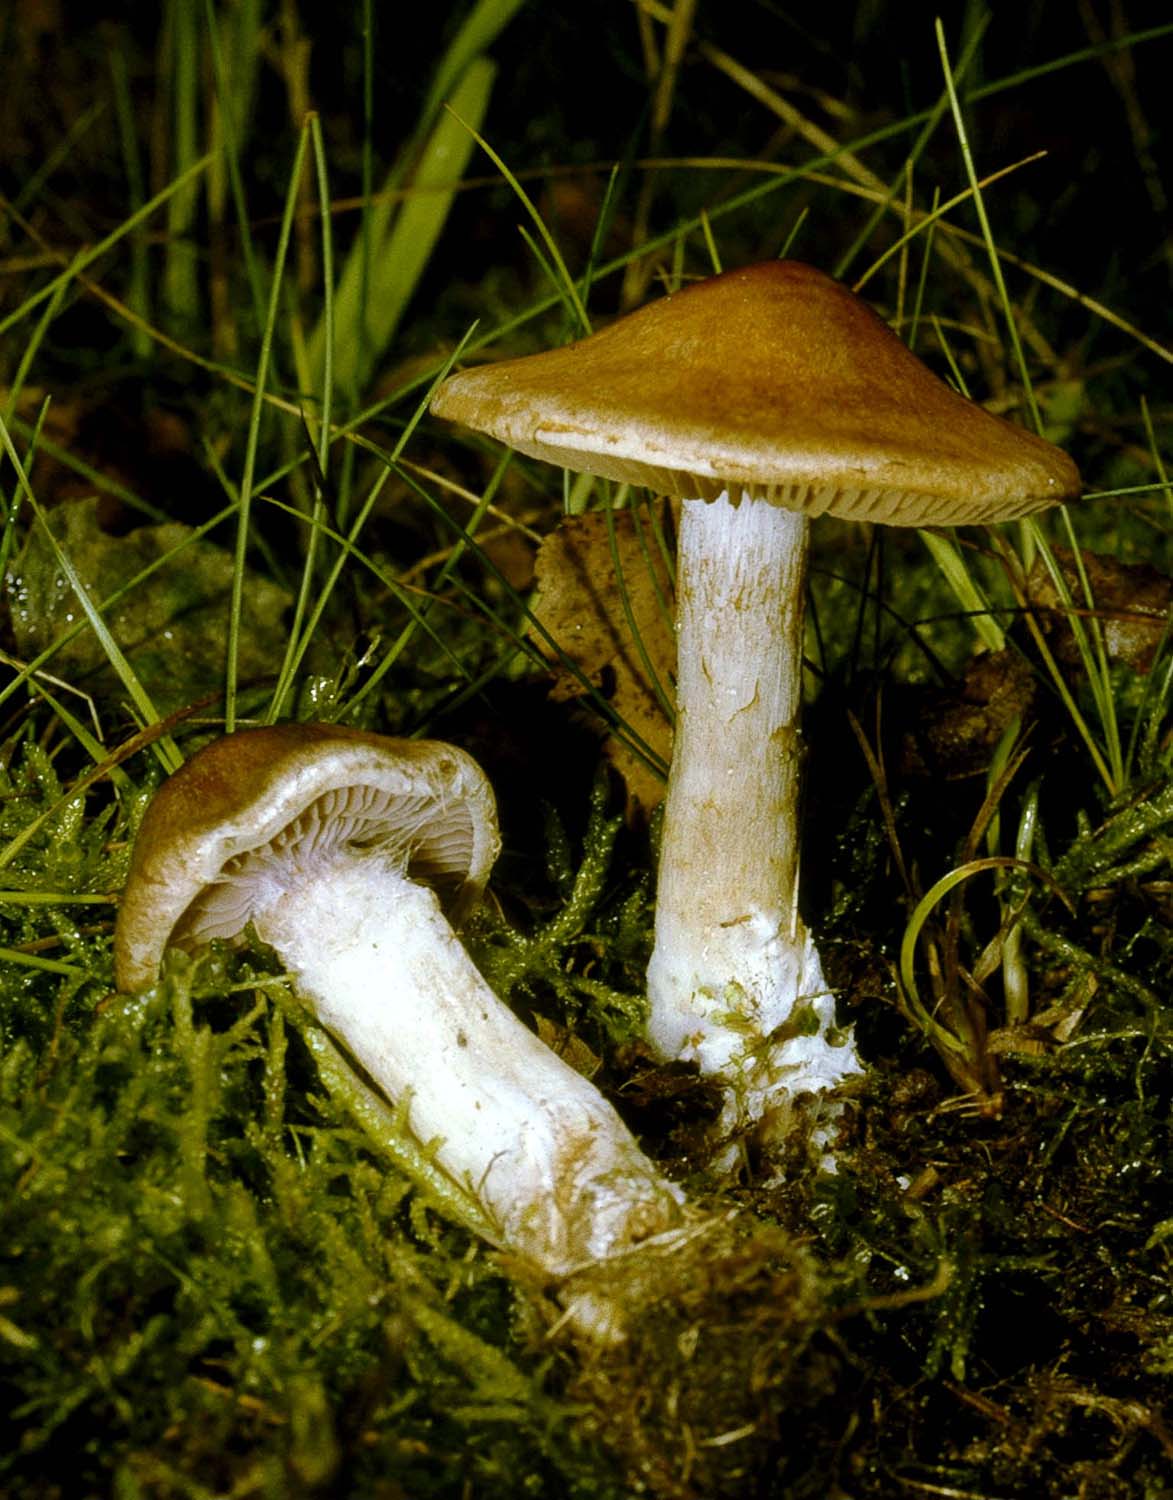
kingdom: Fungi
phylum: Basidiomycota
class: Agaricomycetes
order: Agaricales
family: Cortinariaceae
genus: Cortinarius
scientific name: Cortinarius caninus
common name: gran-slørhat
